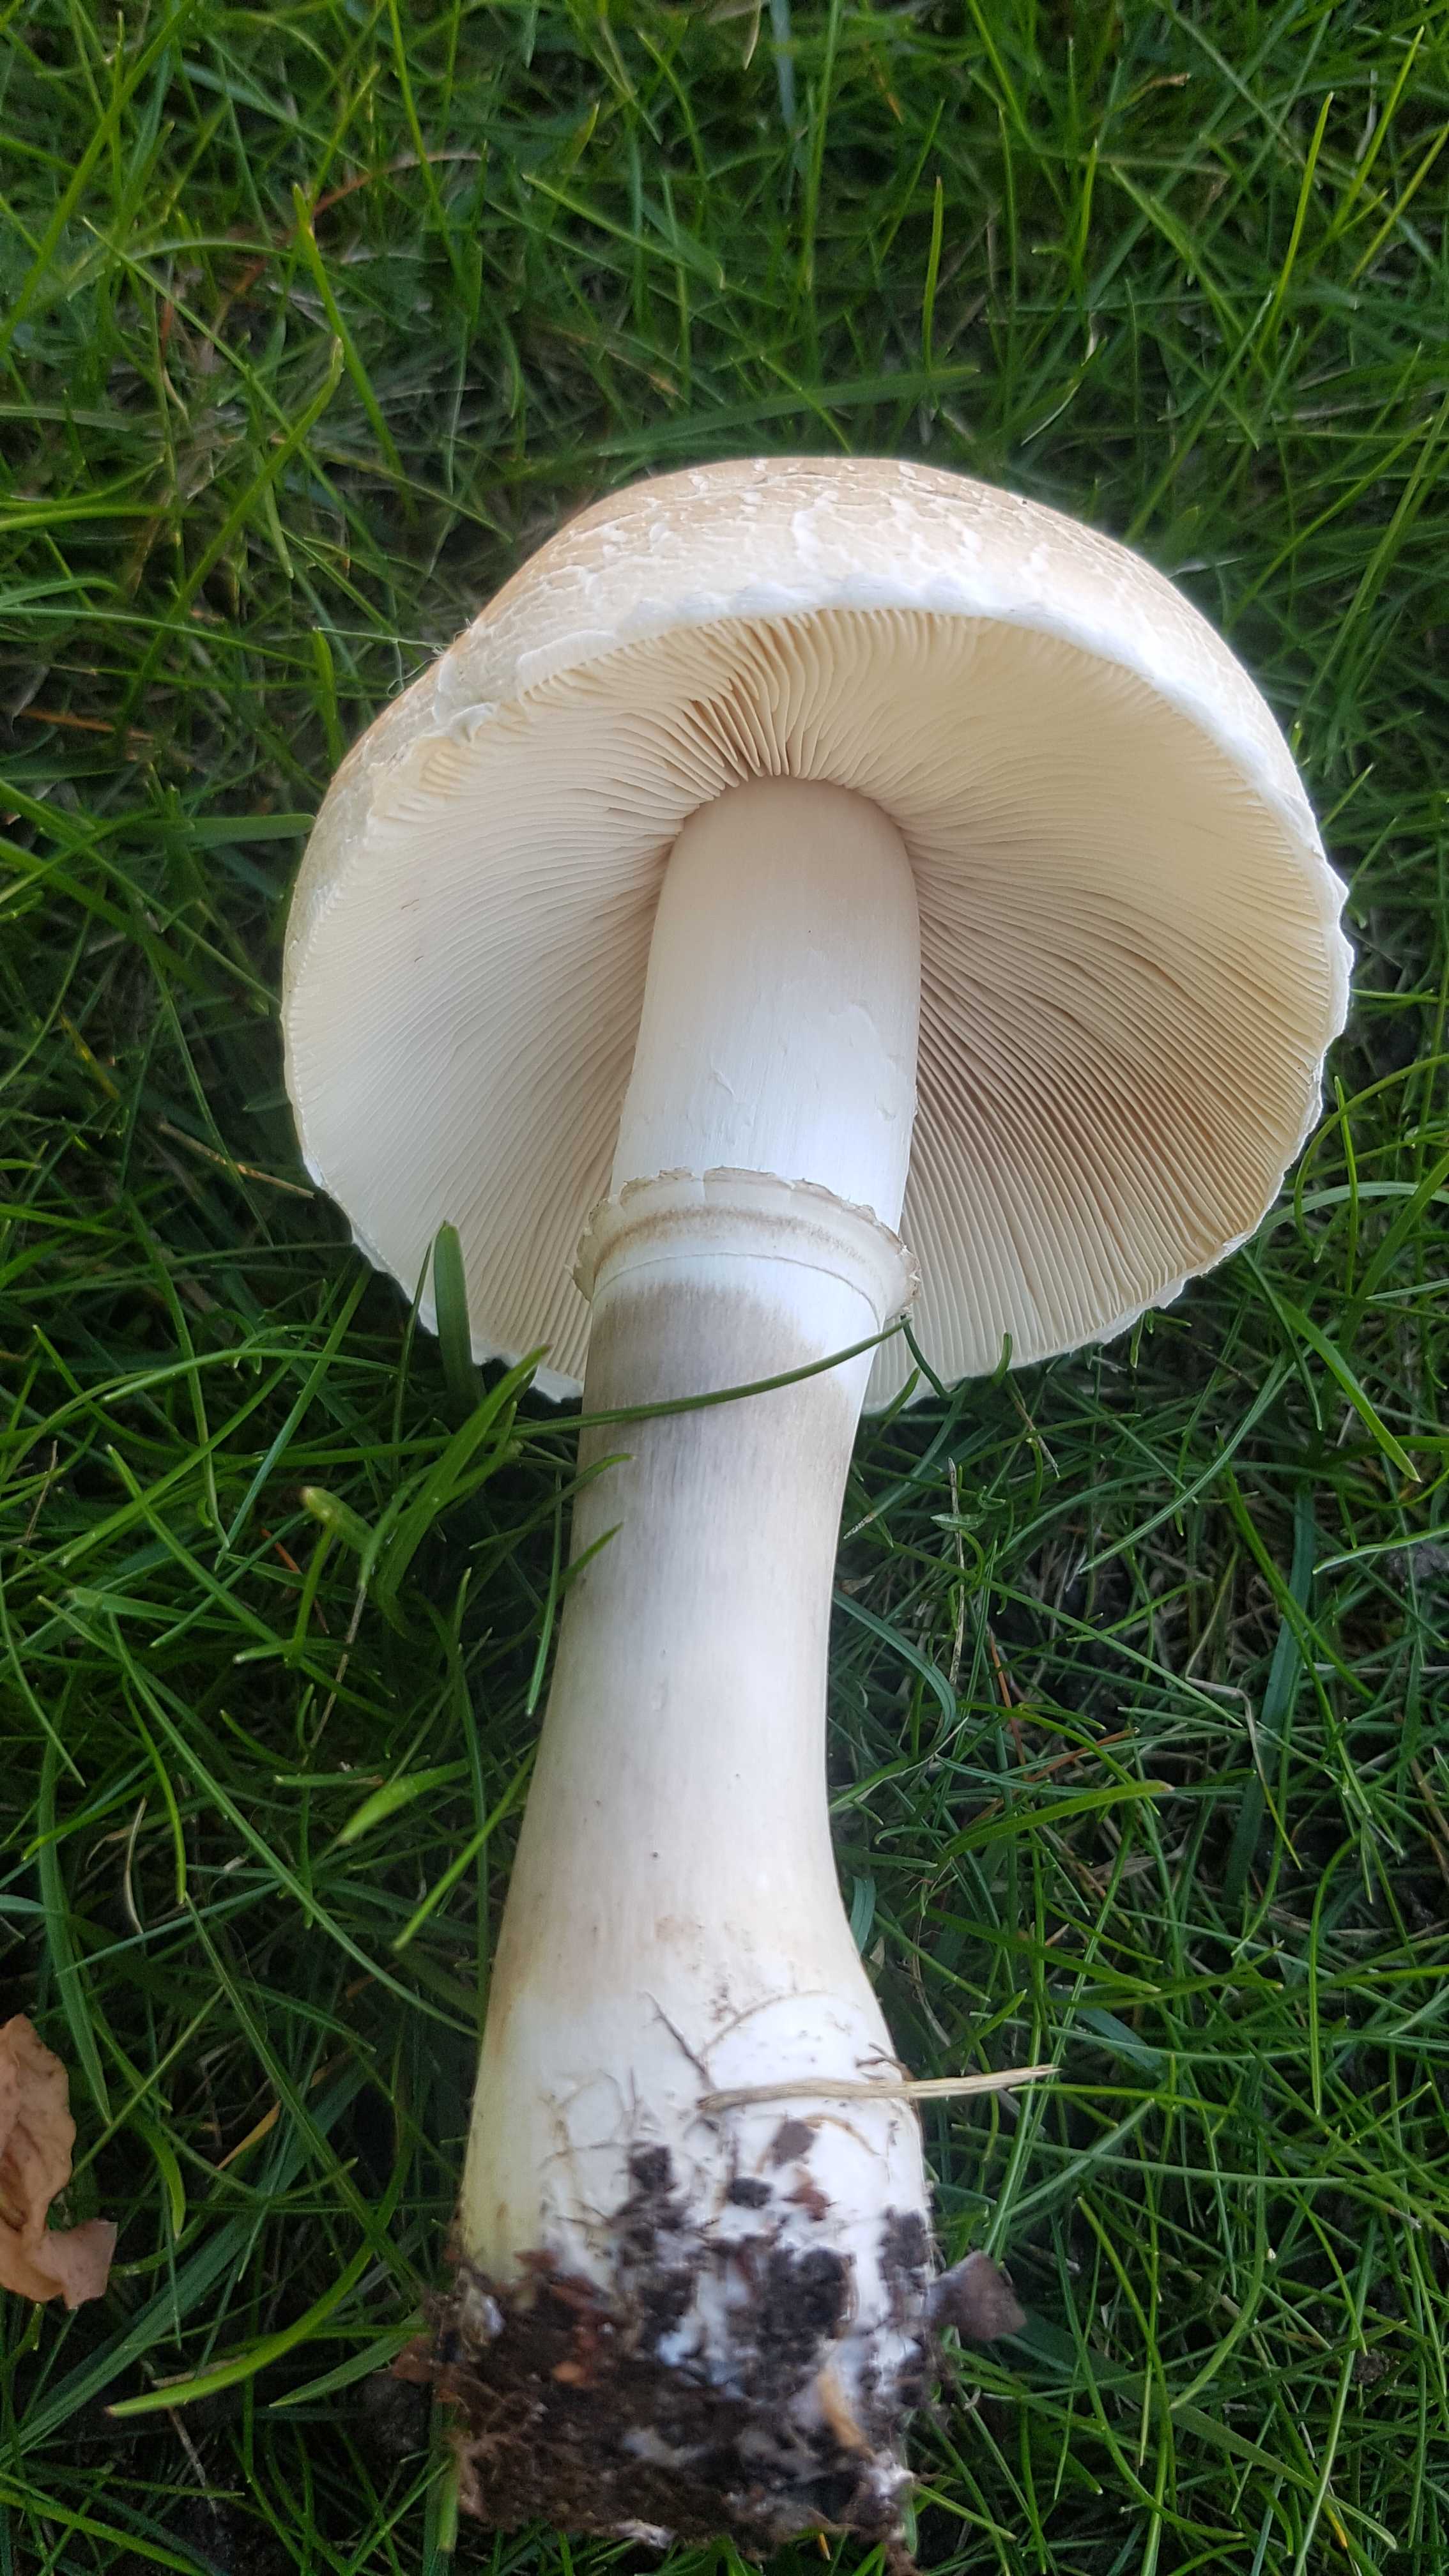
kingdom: Fungi
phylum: Basidiomycota
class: Agaricomycetes
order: Agaricales
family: Agaricaceae
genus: Leucoagaricus
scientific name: Leucoagaricus leucothites
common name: rosabladet silkehat
